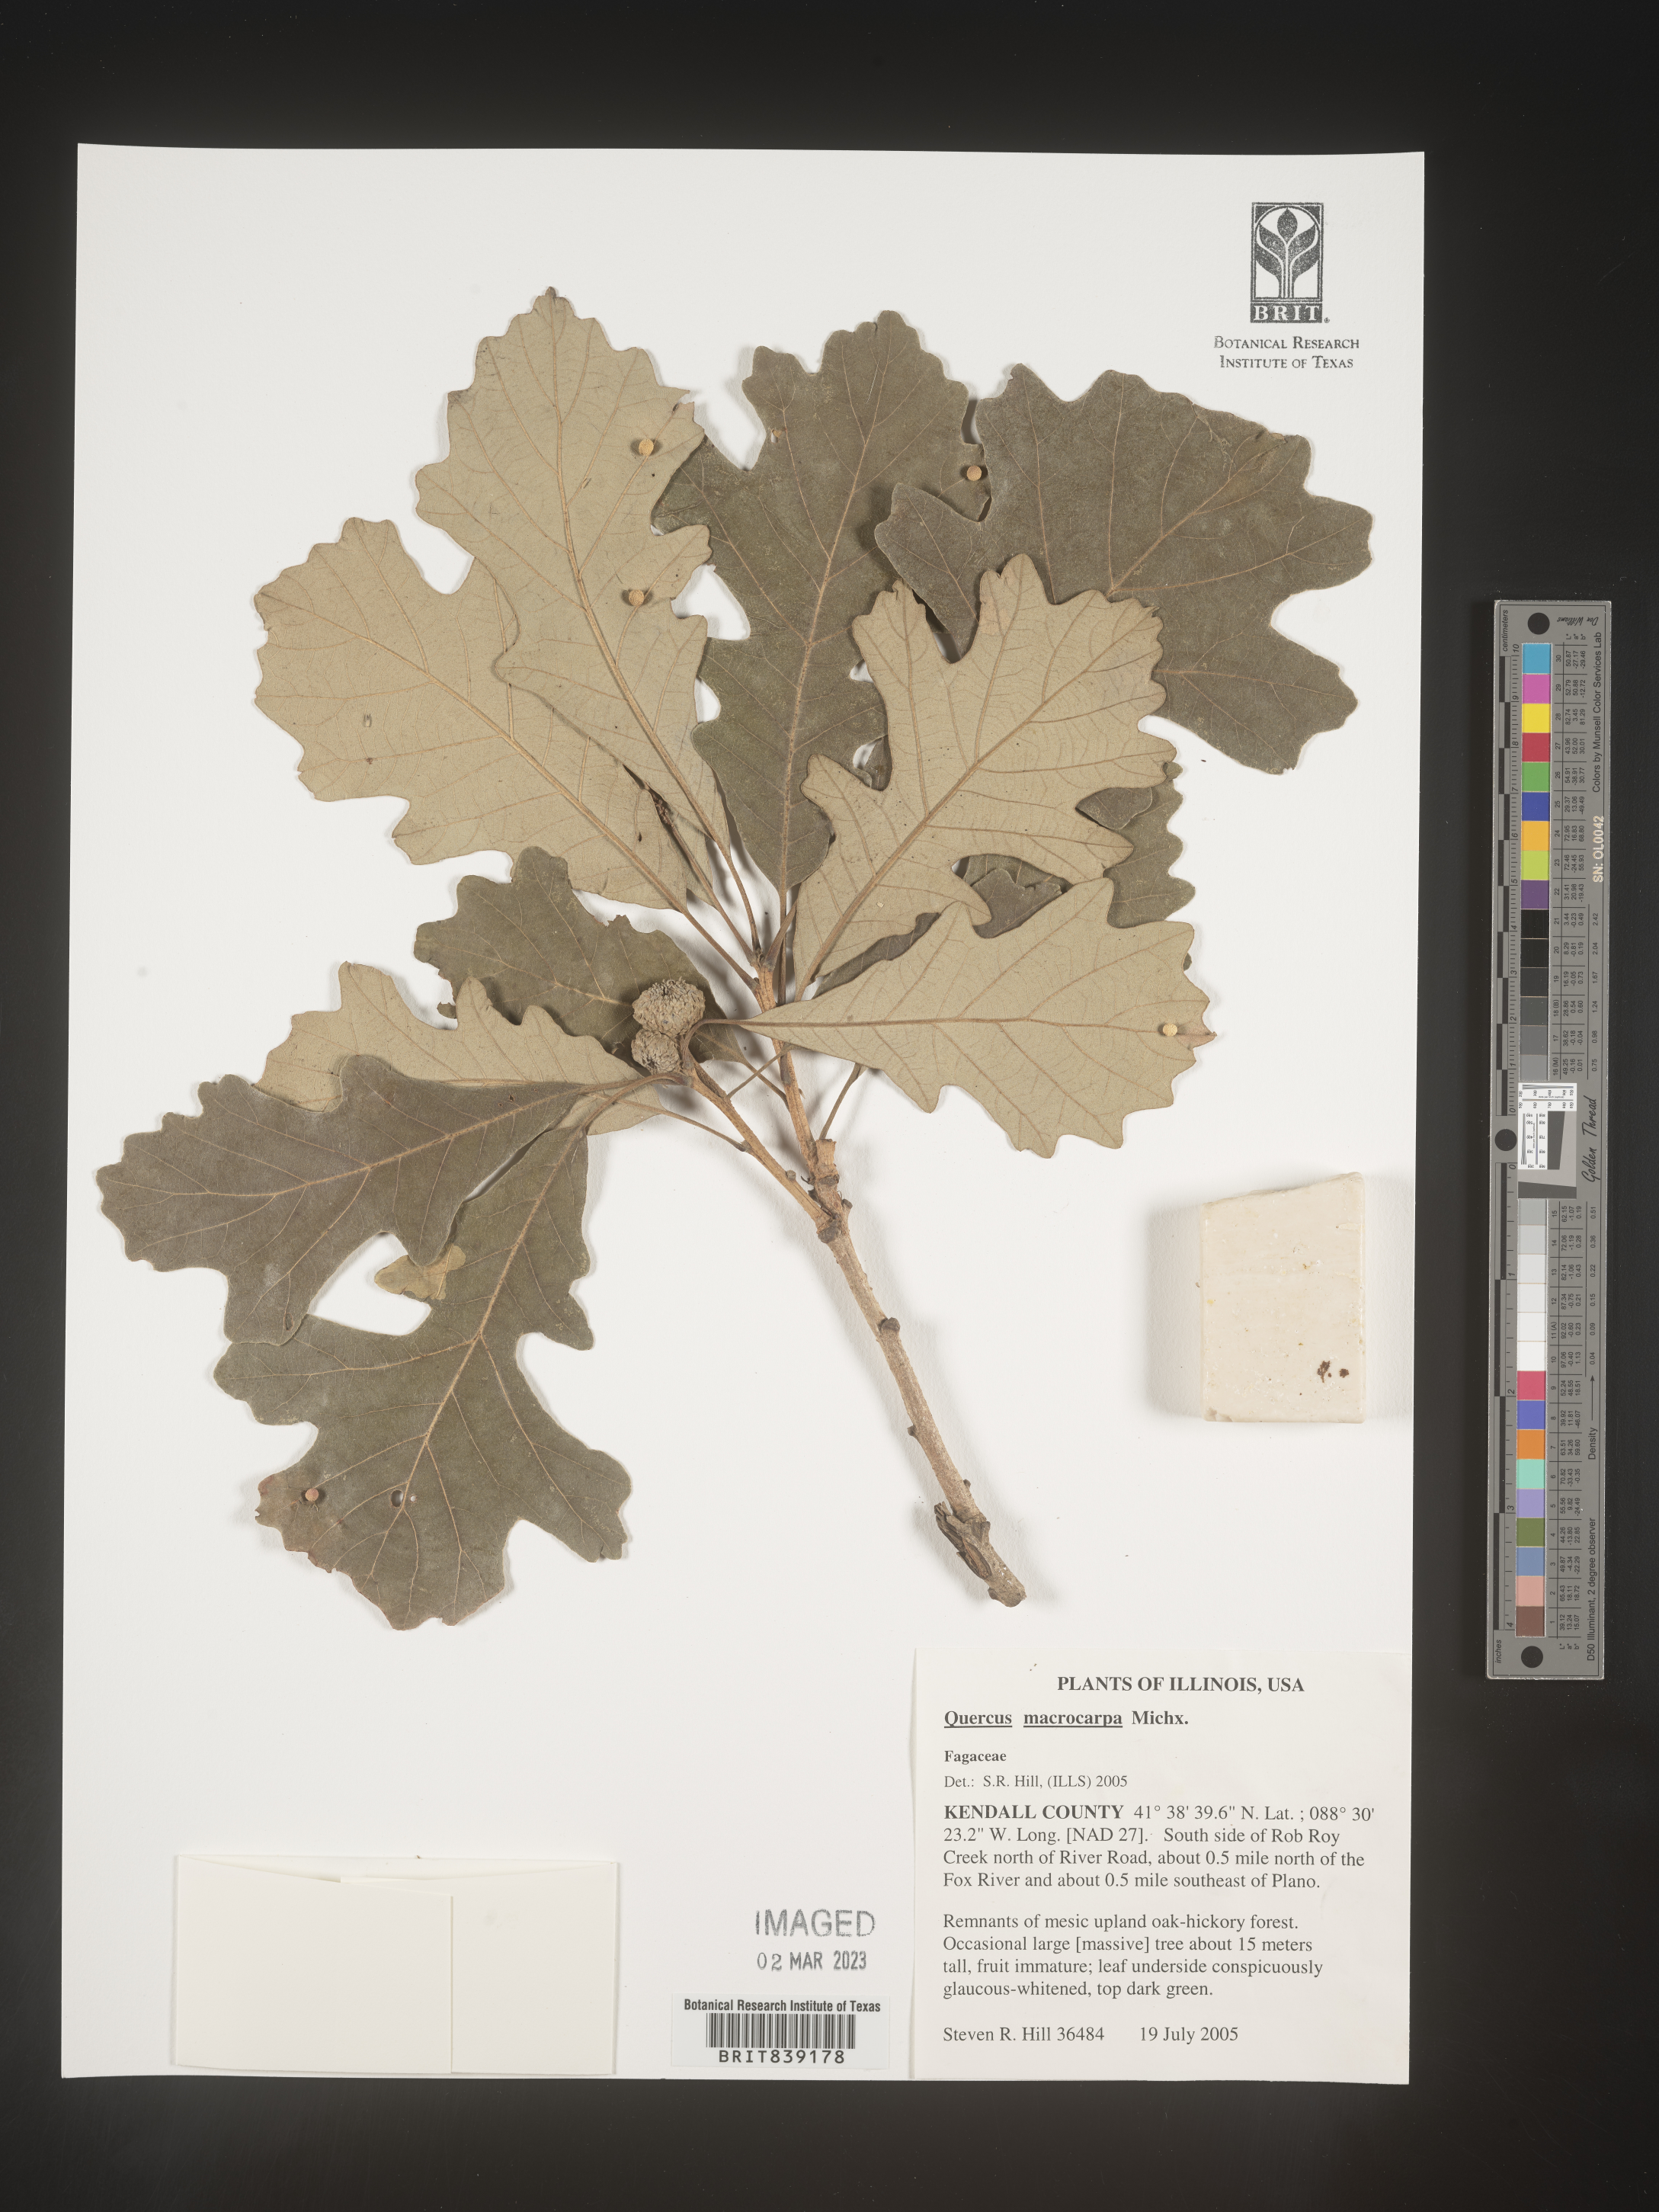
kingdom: Plantae
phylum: Tracheophyta
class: Magnoliopsida
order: Fagales
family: Fagaceae
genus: Quercus
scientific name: Quercus macrocarpa
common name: Bur oak
